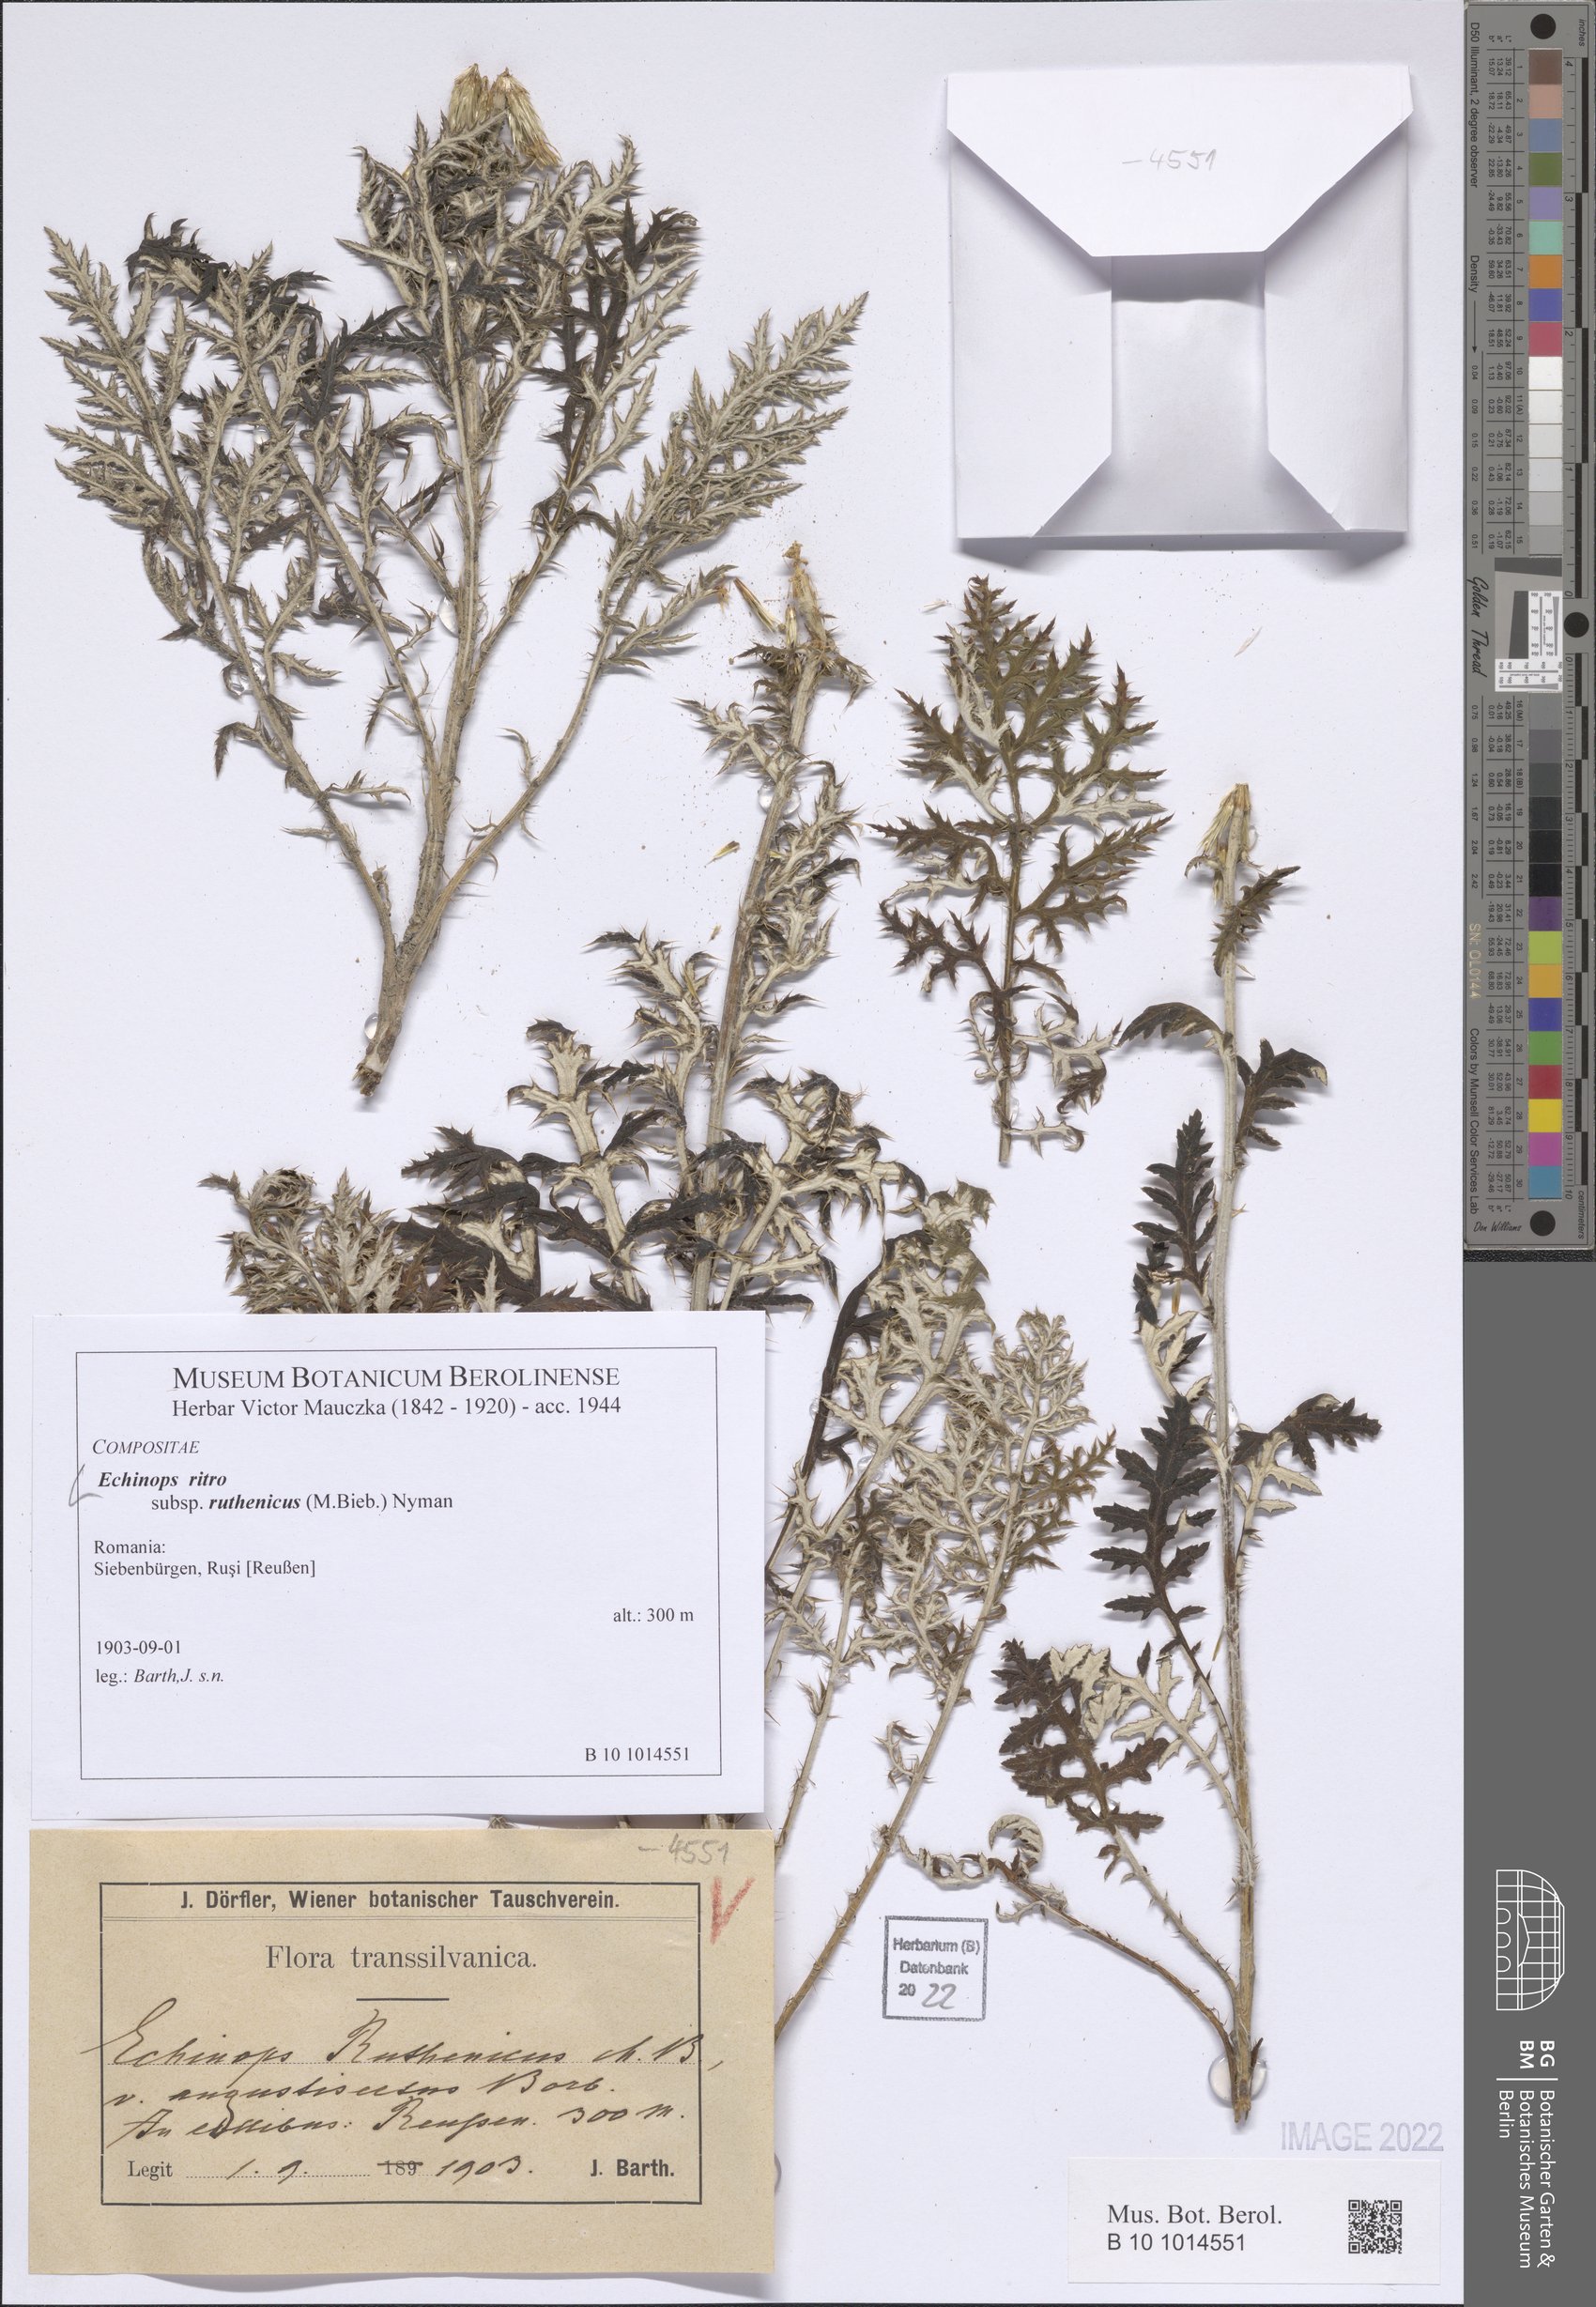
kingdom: Plantae
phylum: Tracheophyta
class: Magnoliopsida
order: Asterales
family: Asteraceae
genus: Echinops
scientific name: Echinops ritro
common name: Globe thistle
